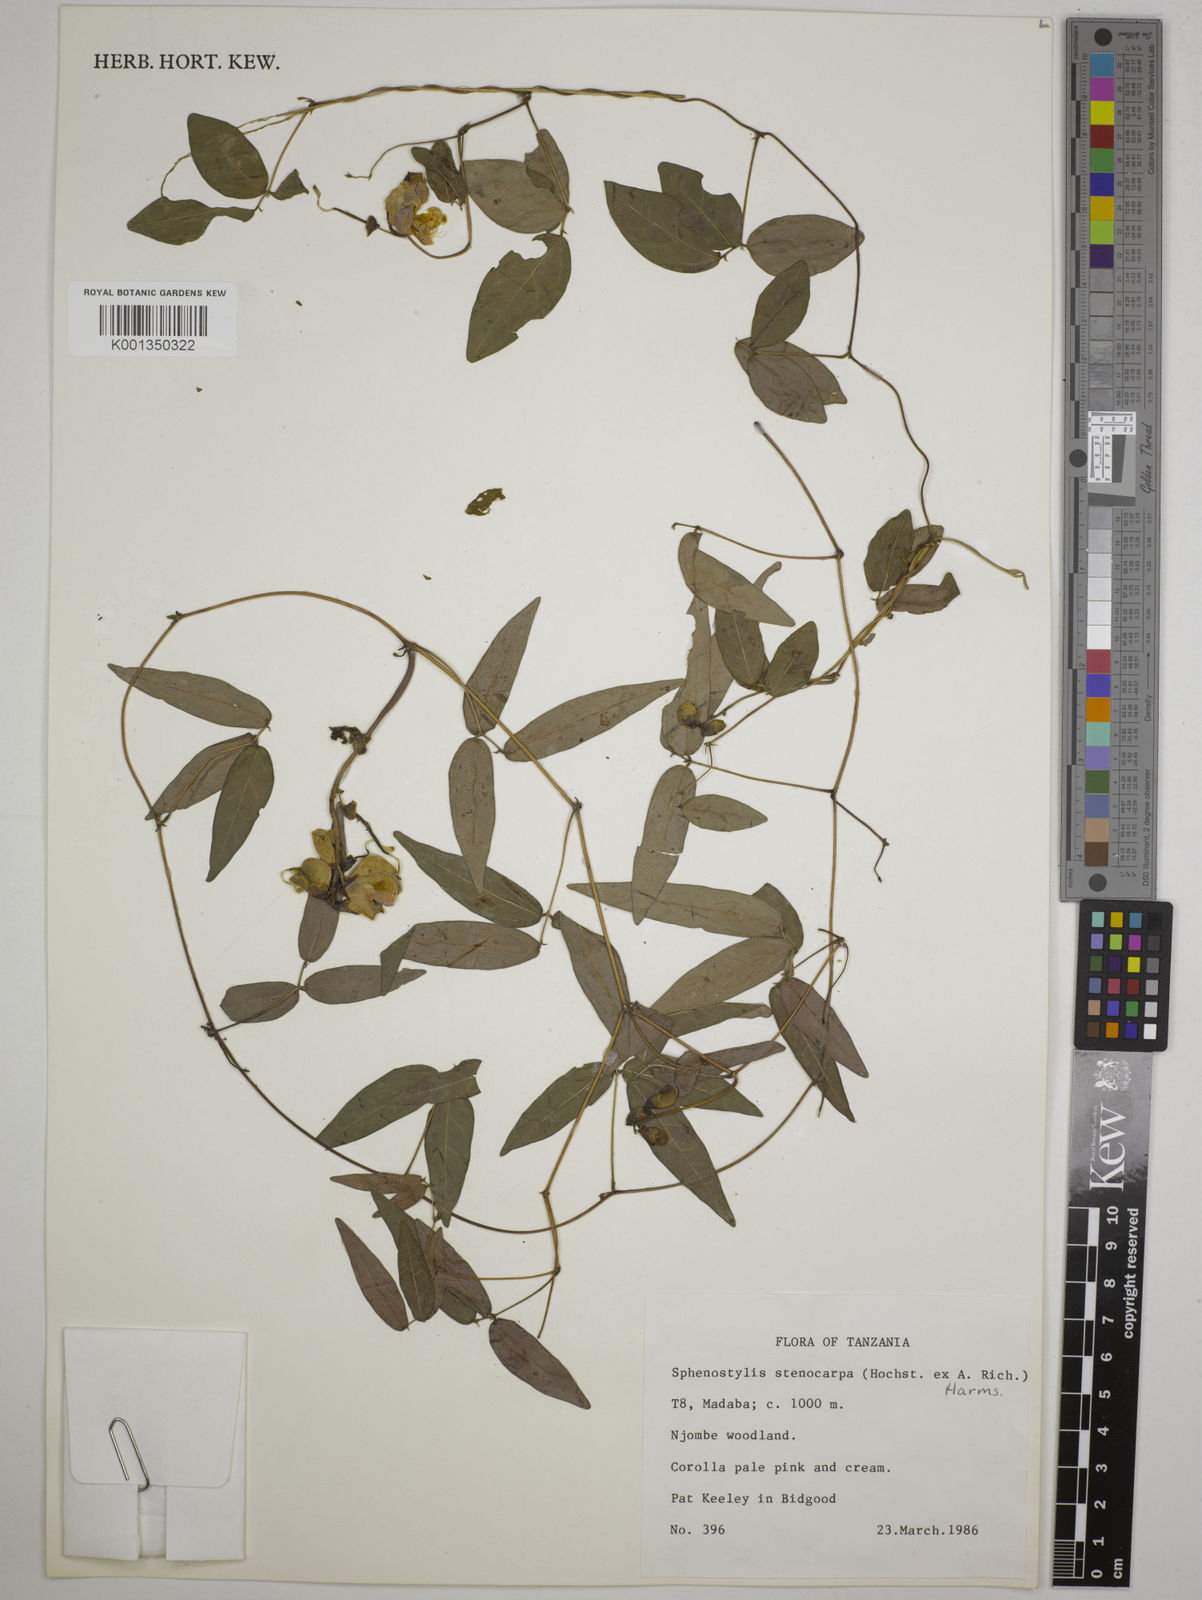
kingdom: Plantae
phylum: Tracheophyta
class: Magnoliopsida
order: Fabales
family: Fabaceae
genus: Sphenostylis
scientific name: Sphenostylis stenocarpa
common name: Yam-pea
